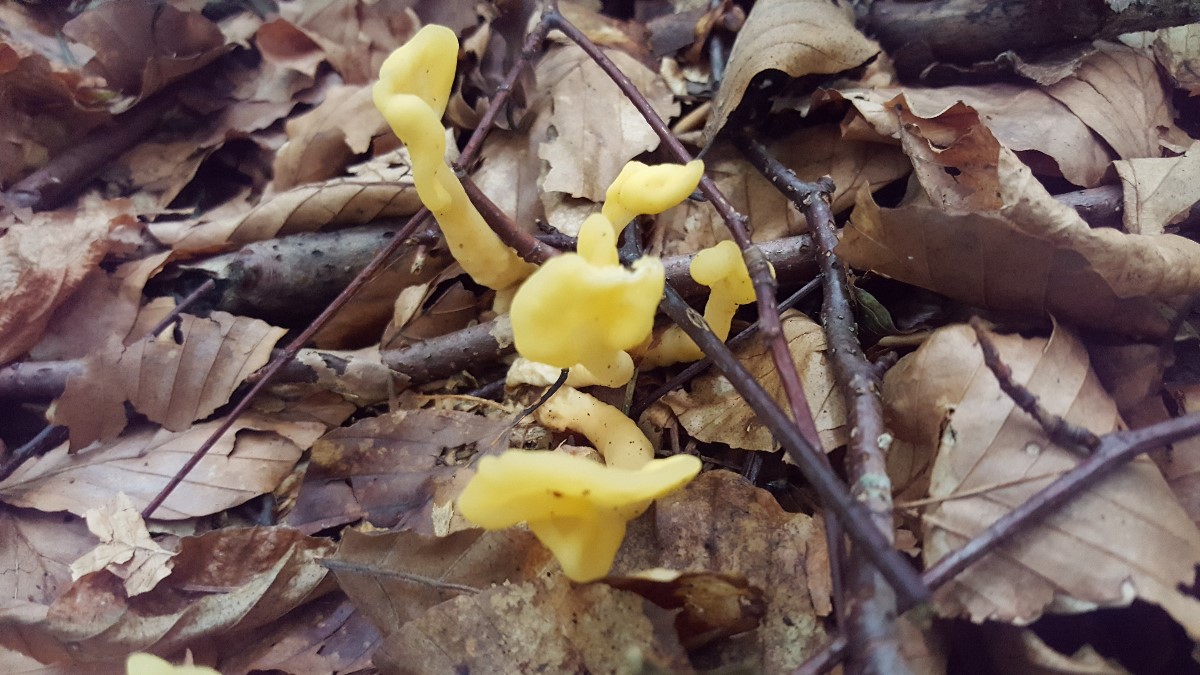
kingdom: Fungi
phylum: Ascomycota
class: Leotiomycetes
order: Rhytismatales
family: Cudoniaceae
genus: Spathularia
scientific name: Spathularia flavida
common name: gul spatelsvamp
